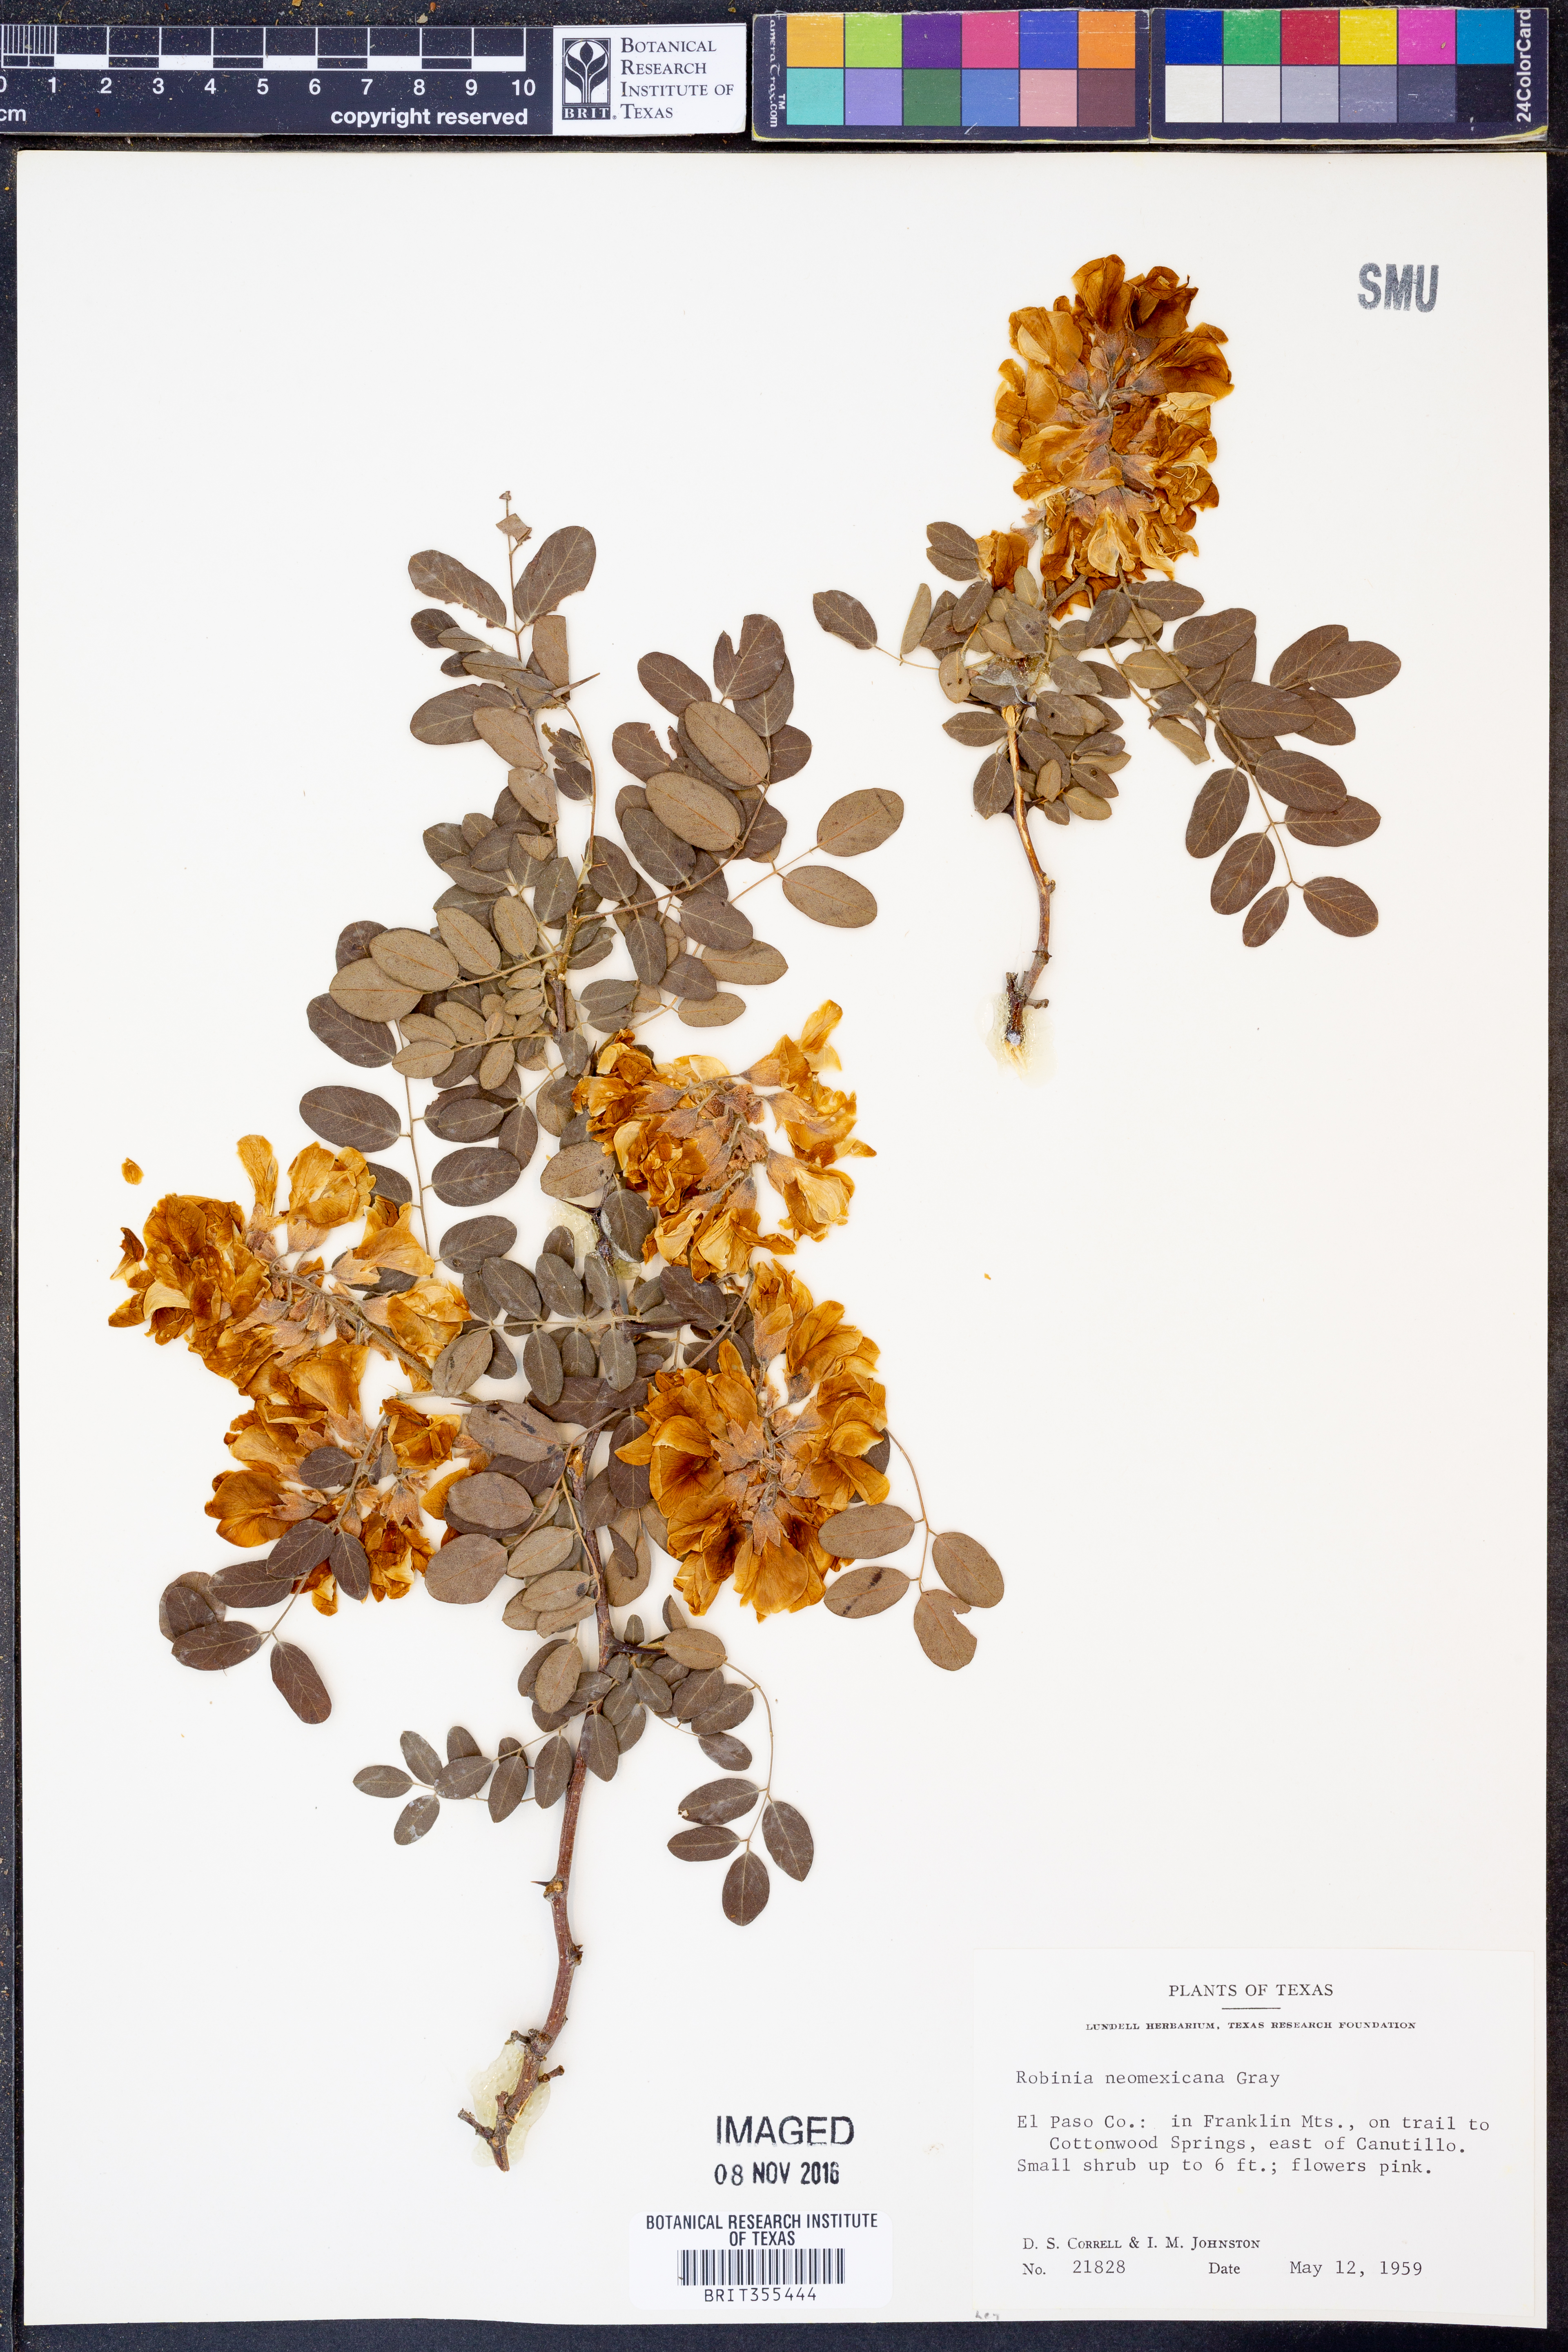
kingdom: Plantae
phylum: Tracheophyta
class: Magnoliopsida
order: Fabales
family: Fabaceae
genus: Robinia
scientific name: Robinia neomexicana
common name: New mexico locust
